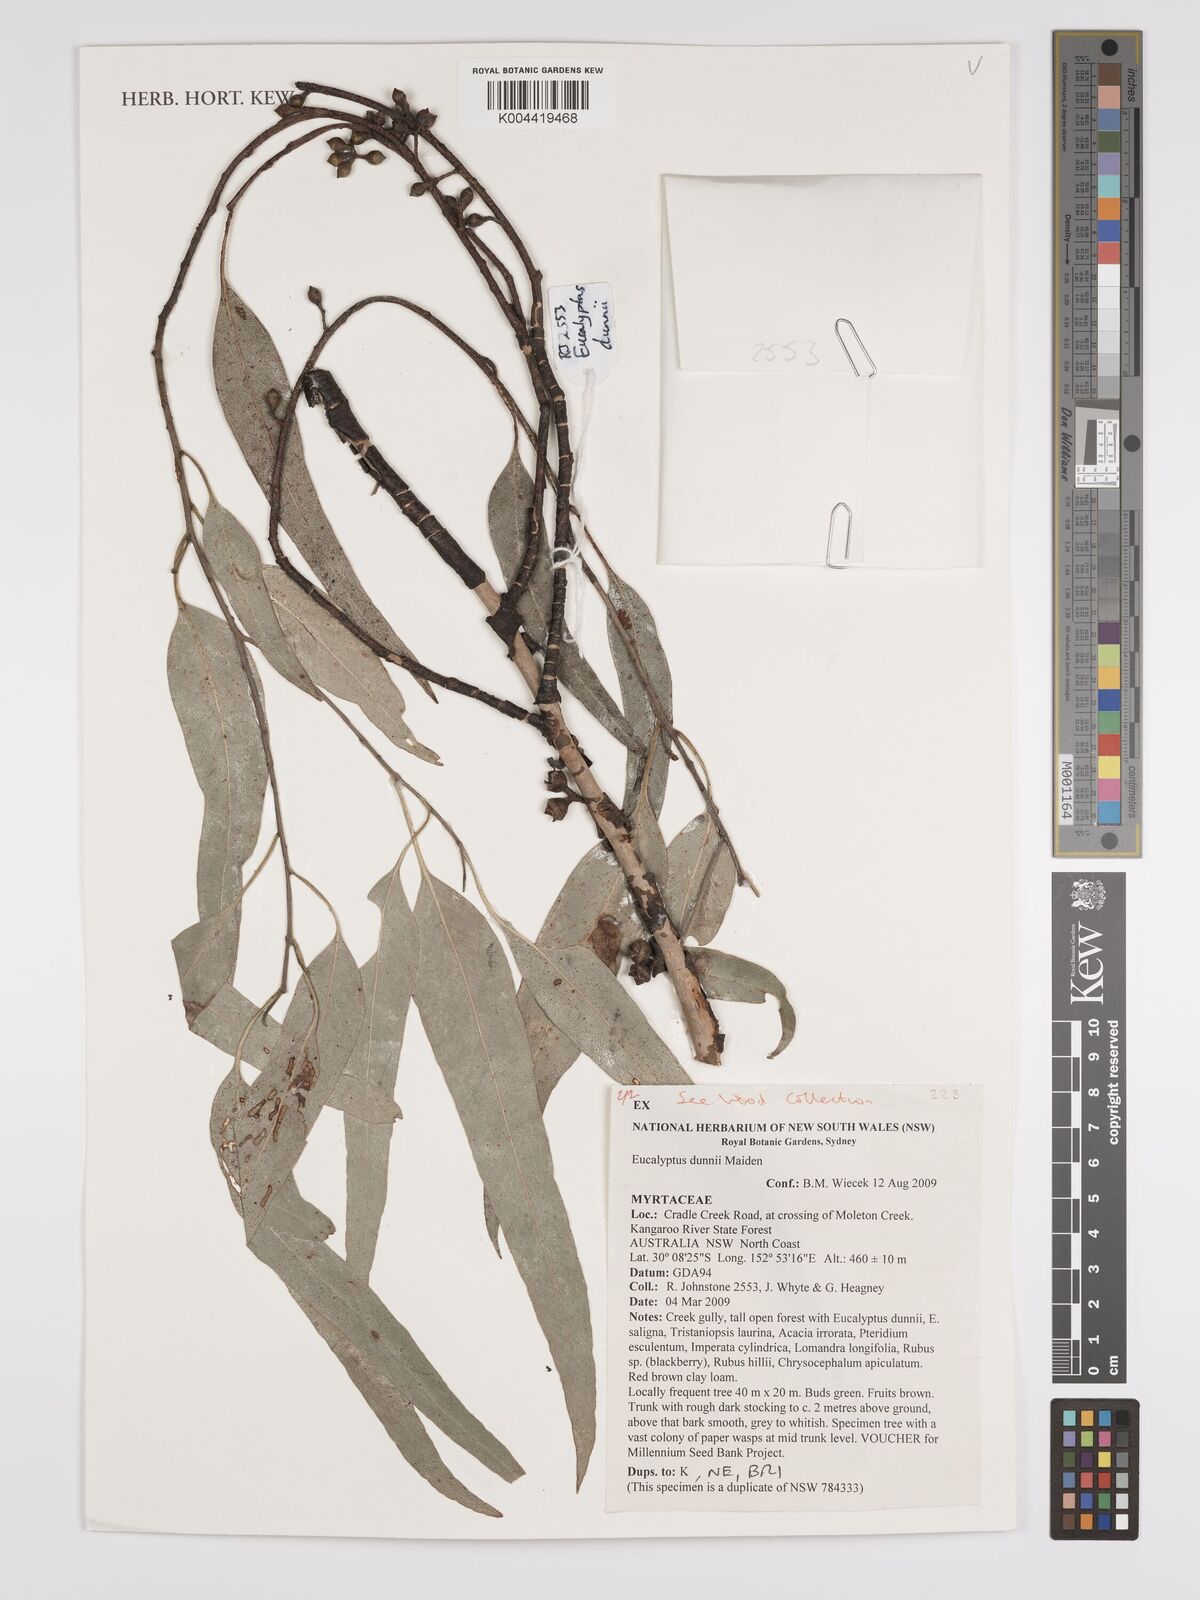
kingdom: Plantae
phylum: Tracheophyta
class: Magnoliopsida
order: Myrtales
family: Myrtaceae
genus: Eucalyptus
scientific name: Eucalyptus dunnii
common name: Dunn's white gum
